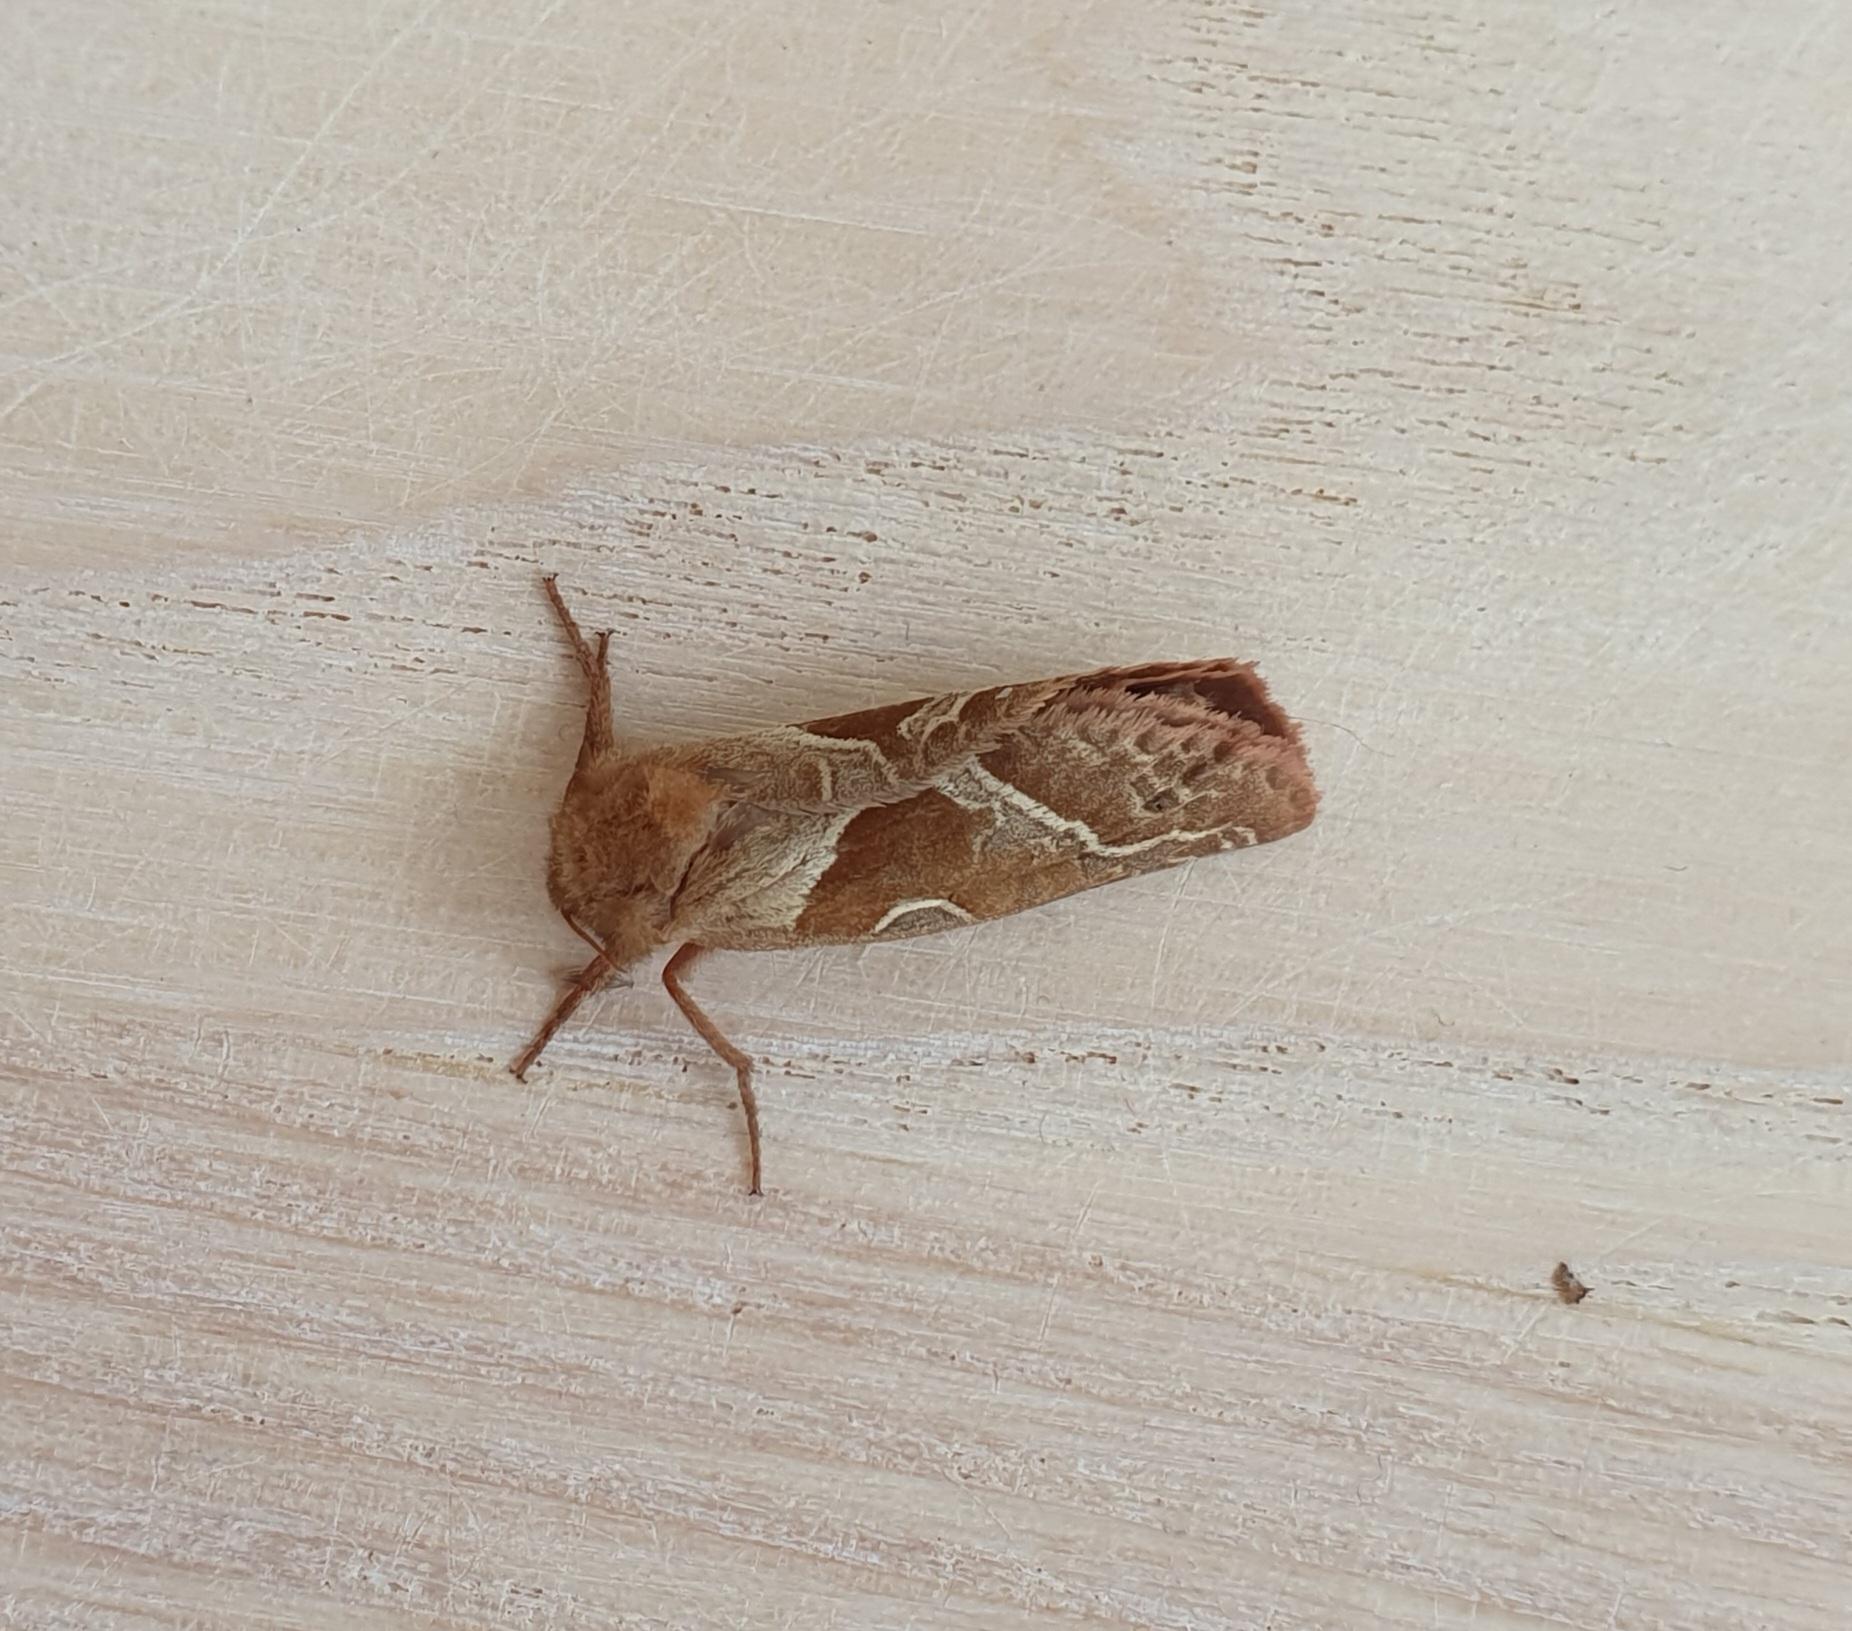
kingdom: Animalia
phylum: Arthropoda
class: Insecta
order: Lepidoptera
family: Hepialidae
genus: Triodia
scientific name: Triodia sylvina
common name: Skræpperodæder
